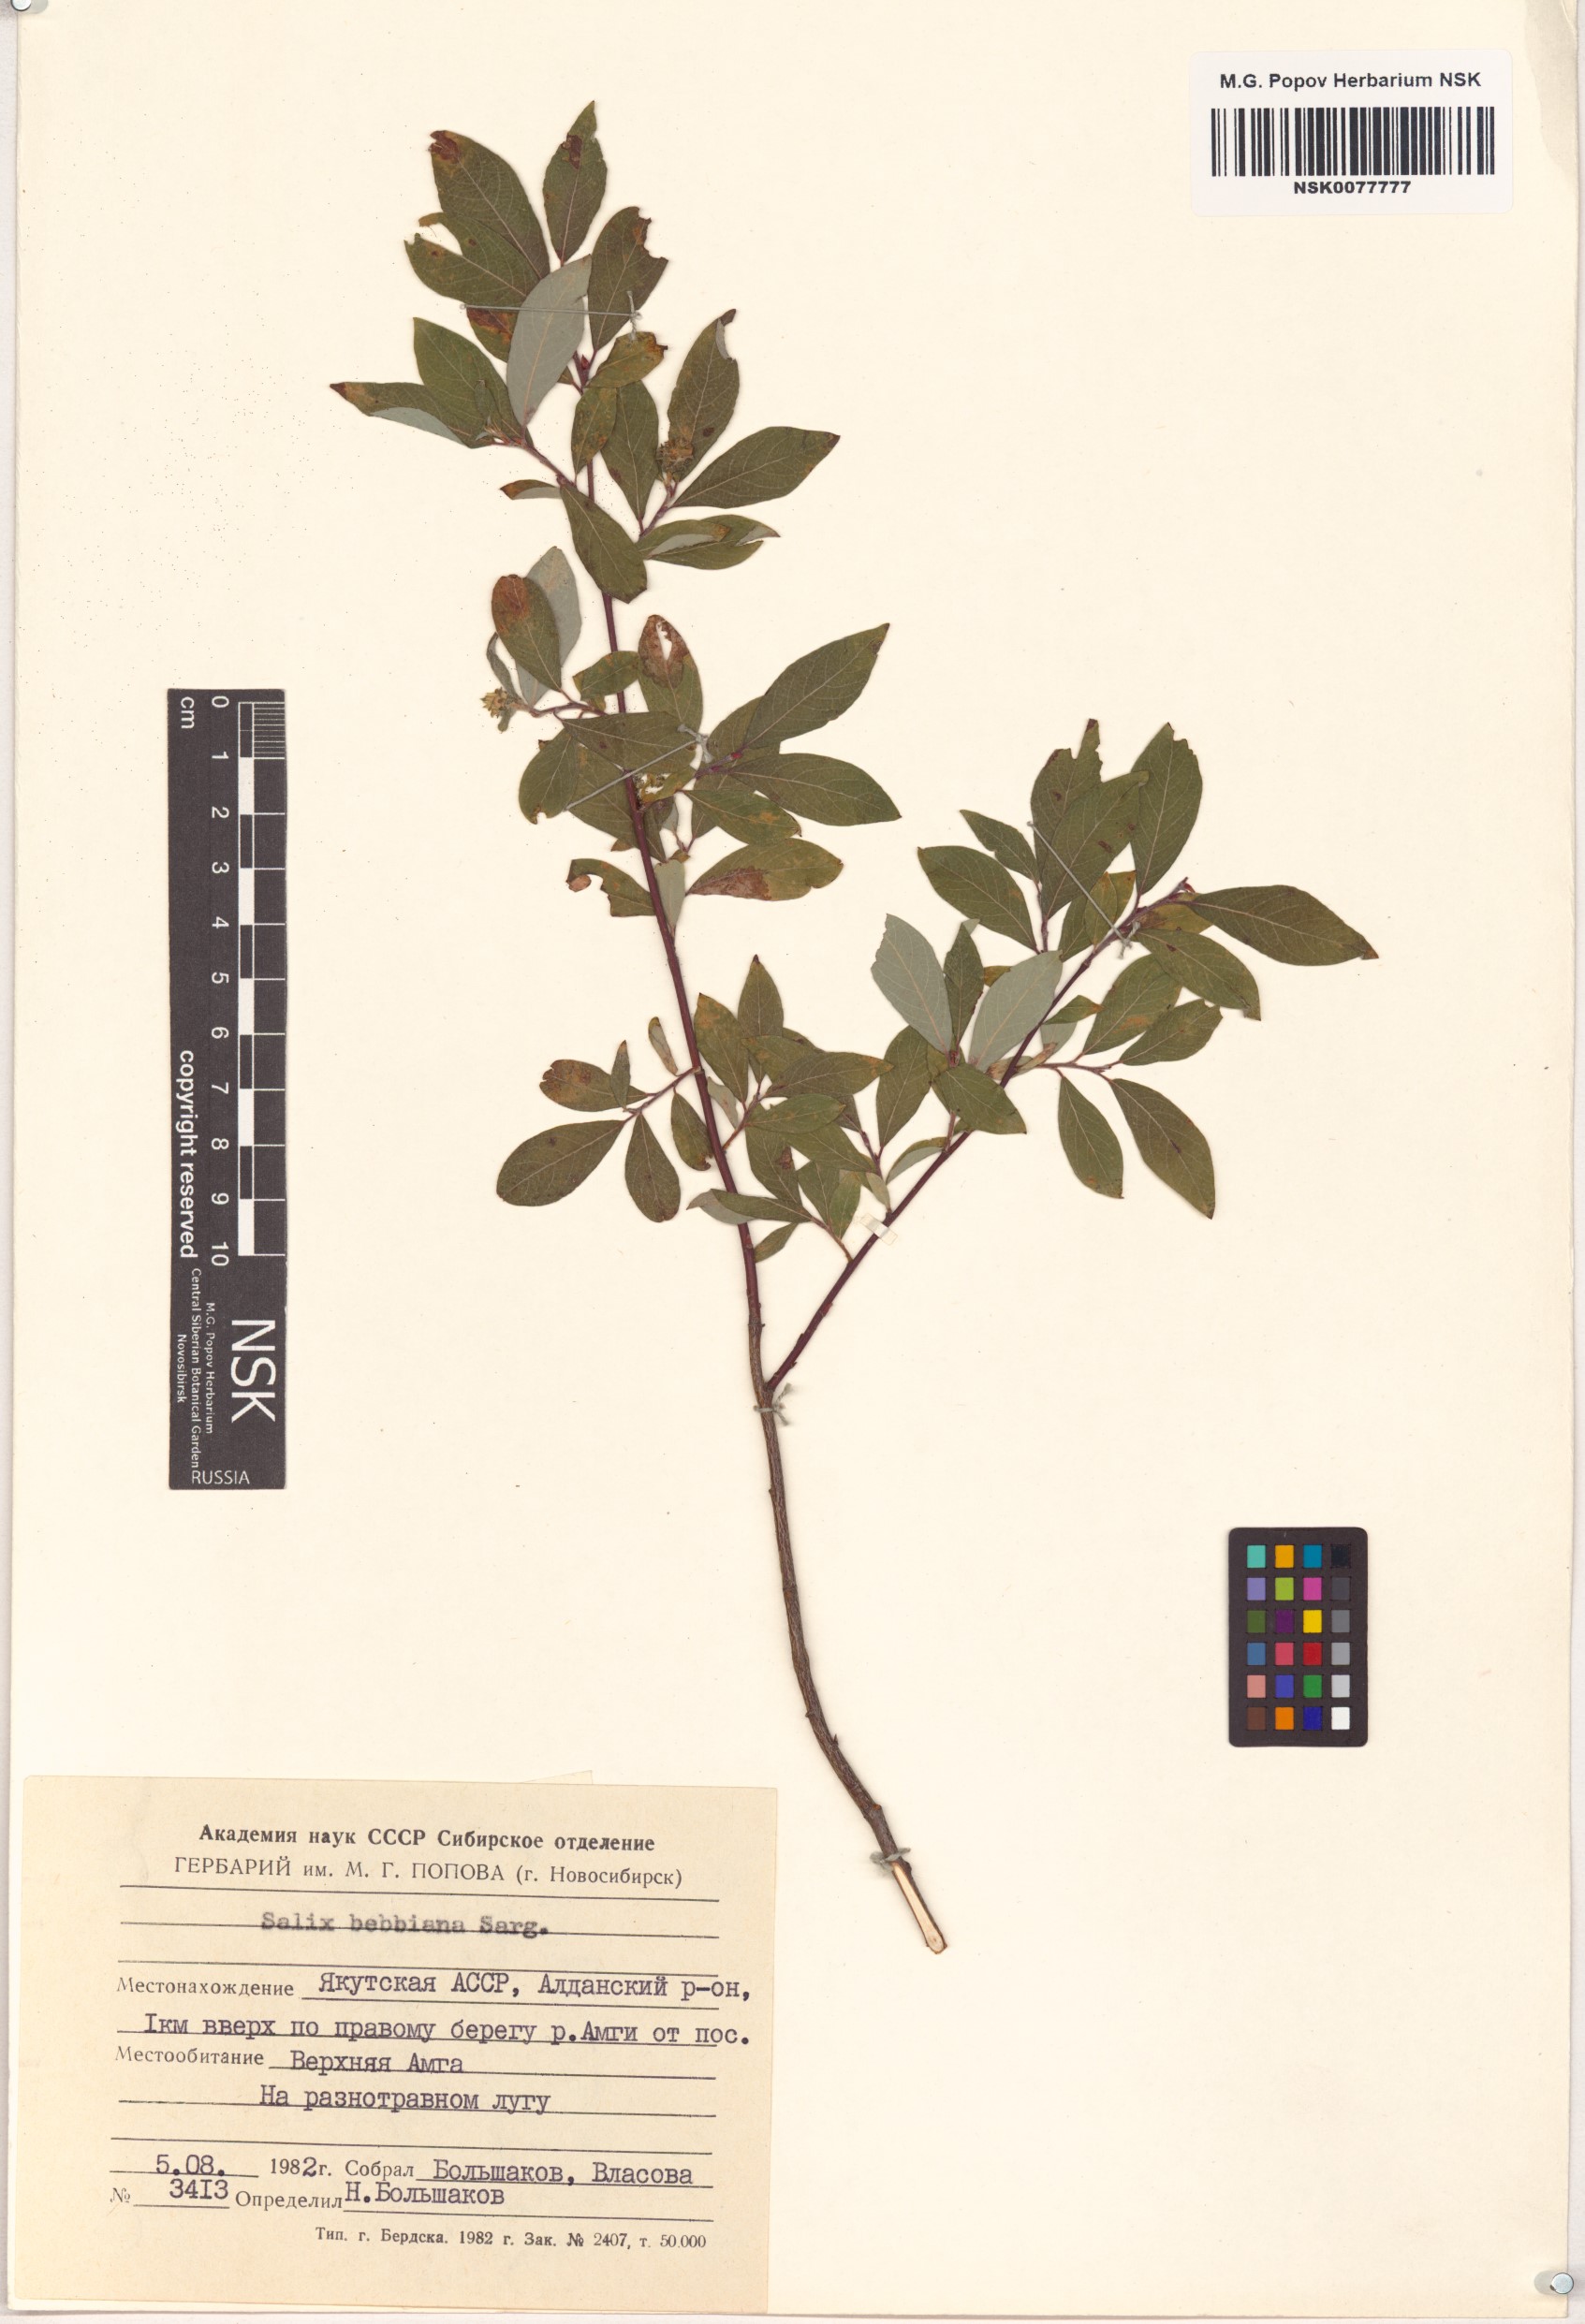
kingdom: Plantae
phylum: Tracheophyta
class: Magnoliopsida
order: Malpighiales
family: Salicaceae
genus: Salix
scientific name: Salix bebbiana
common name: Bebb's willow
